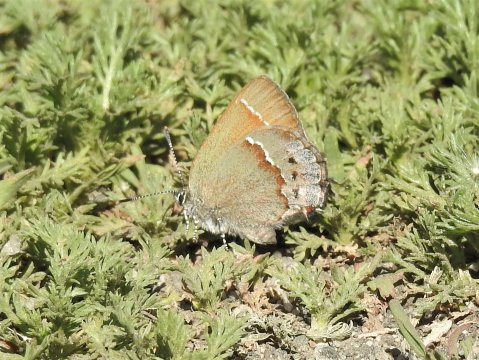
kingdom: Animalia
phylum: Arthropoda
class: Insecta
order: Lepidoptera
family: Lycaenidae
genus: Mitoura
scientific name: Mitoura gryneus
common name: Juniper Hairstreak
